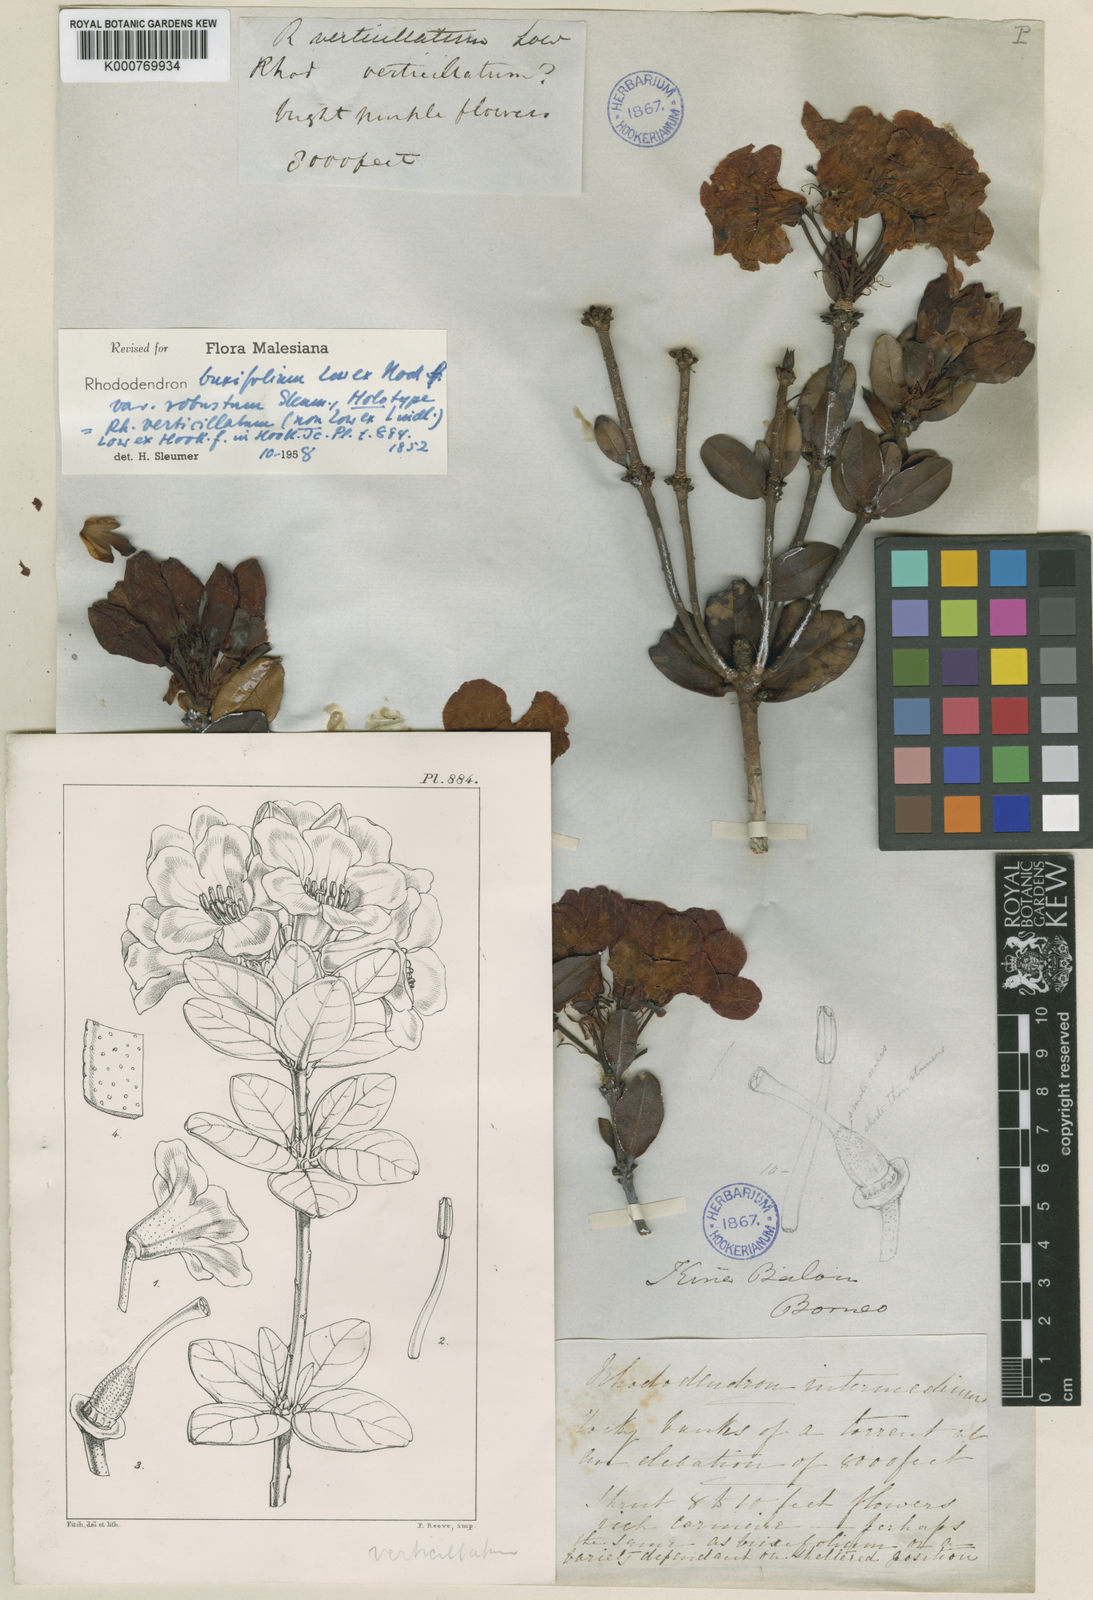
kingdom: Plantae
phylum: Tracheophyta
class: Magnoliopsida
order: Ericales
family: Ericaceae
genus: Rhododendron
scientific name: Rhododendron buxifolium
